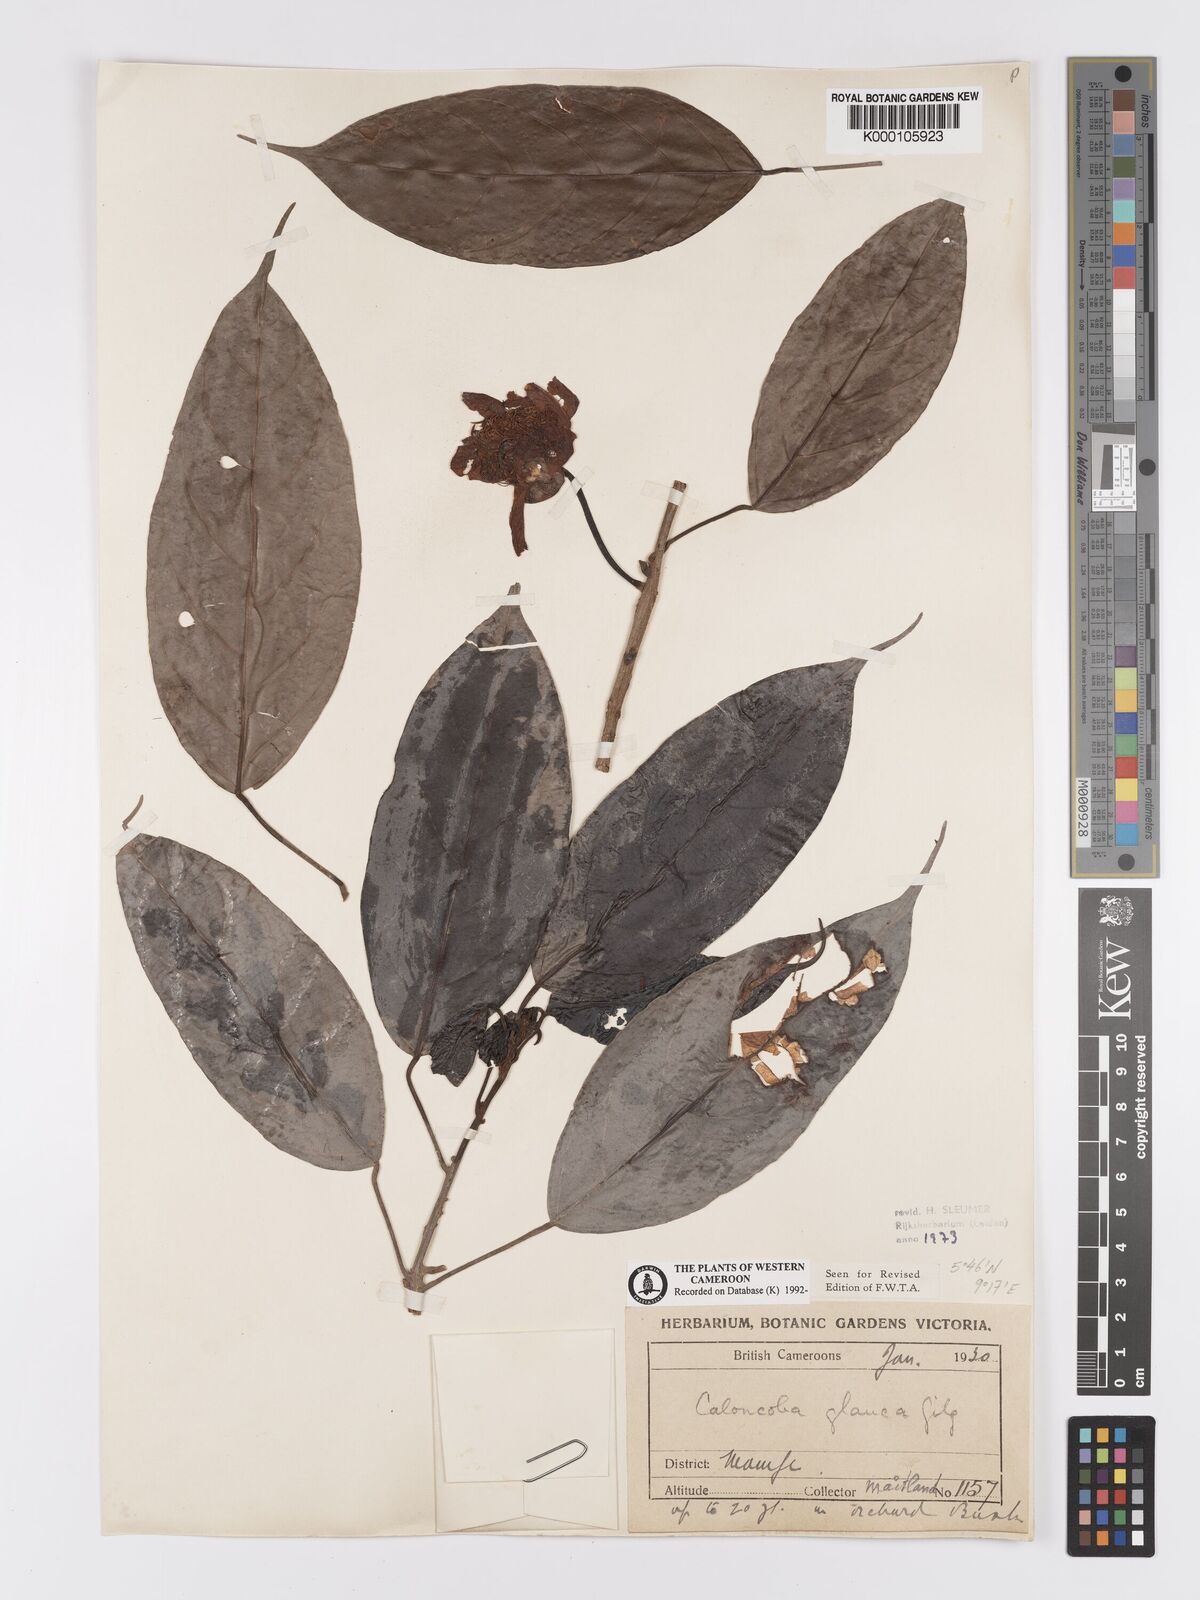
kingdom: Plantae
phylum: Tracheophyta
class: Magnoliopsida
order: Malpighiales
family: Achariaceae
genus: Caloncoba
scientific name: Caloncoba glauca
